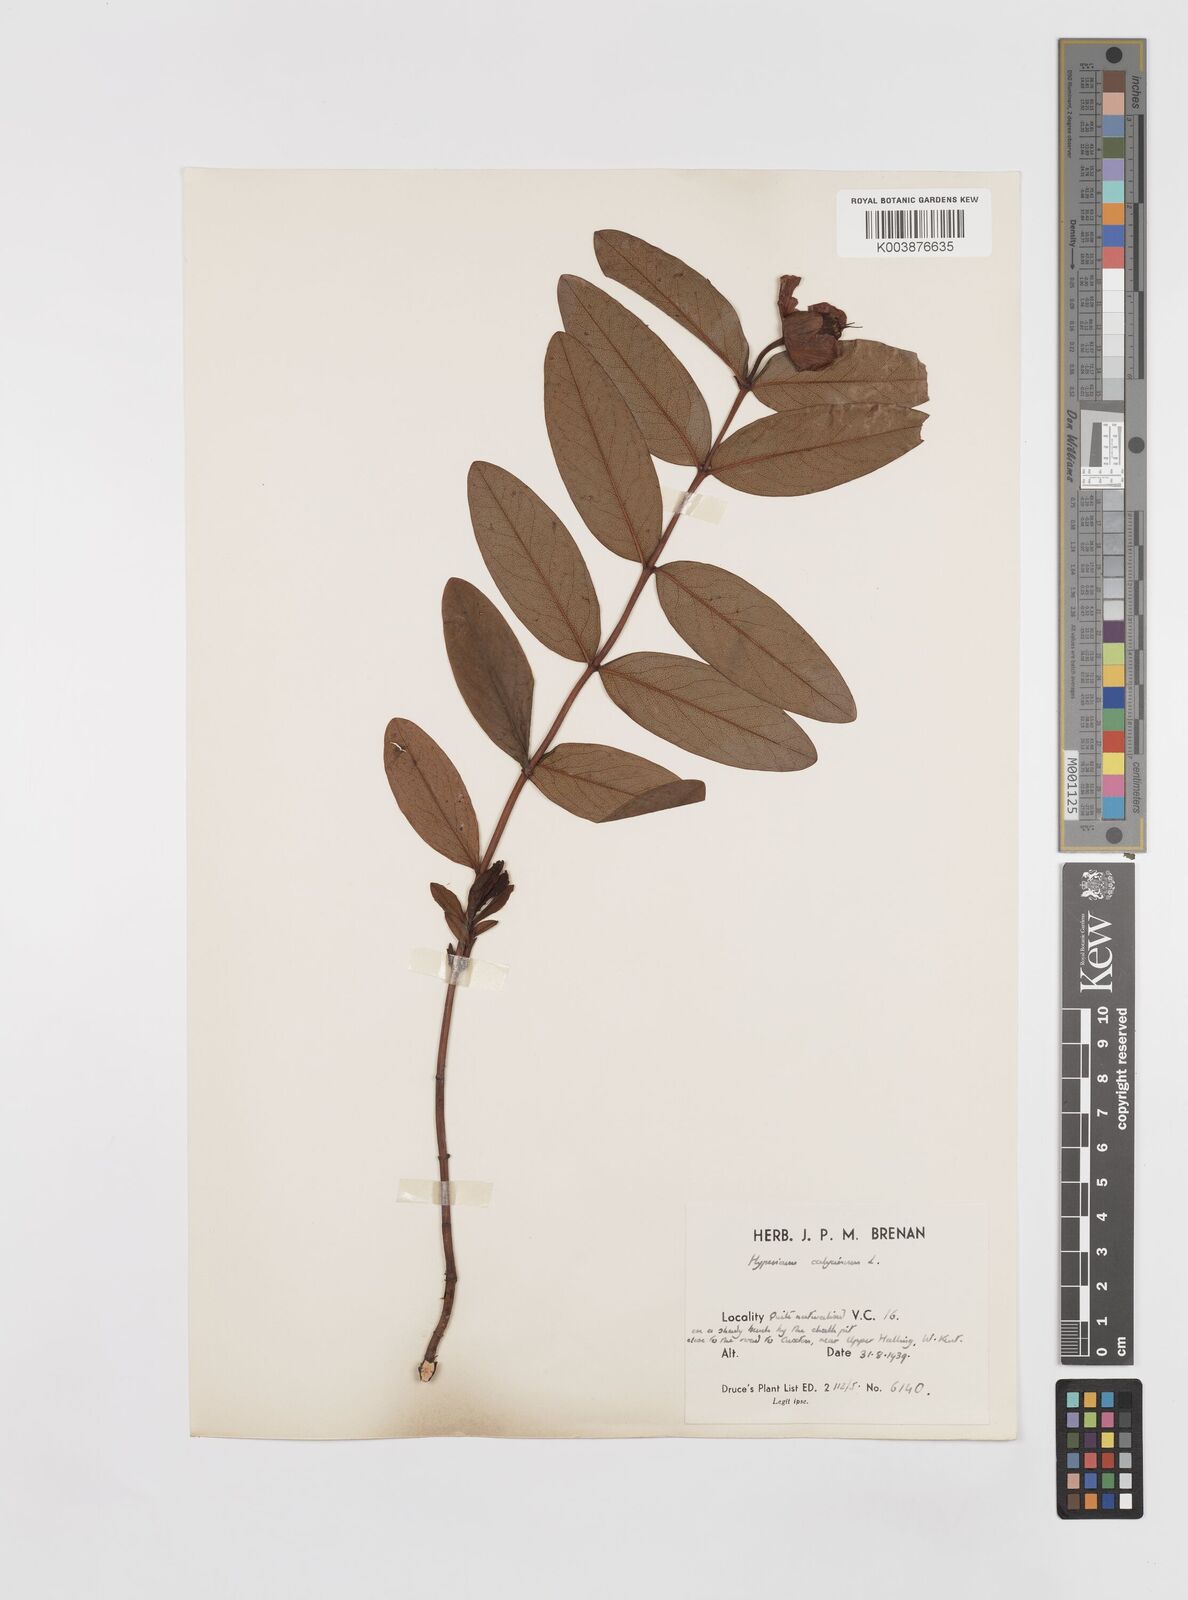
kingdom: Plantae
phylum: Tracheophyta
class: Magnoliopsida
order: Malpighiales
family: Hypericaceae
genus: Hypericum
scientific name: Hypericum calycinum
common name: Rose-of-sharon
